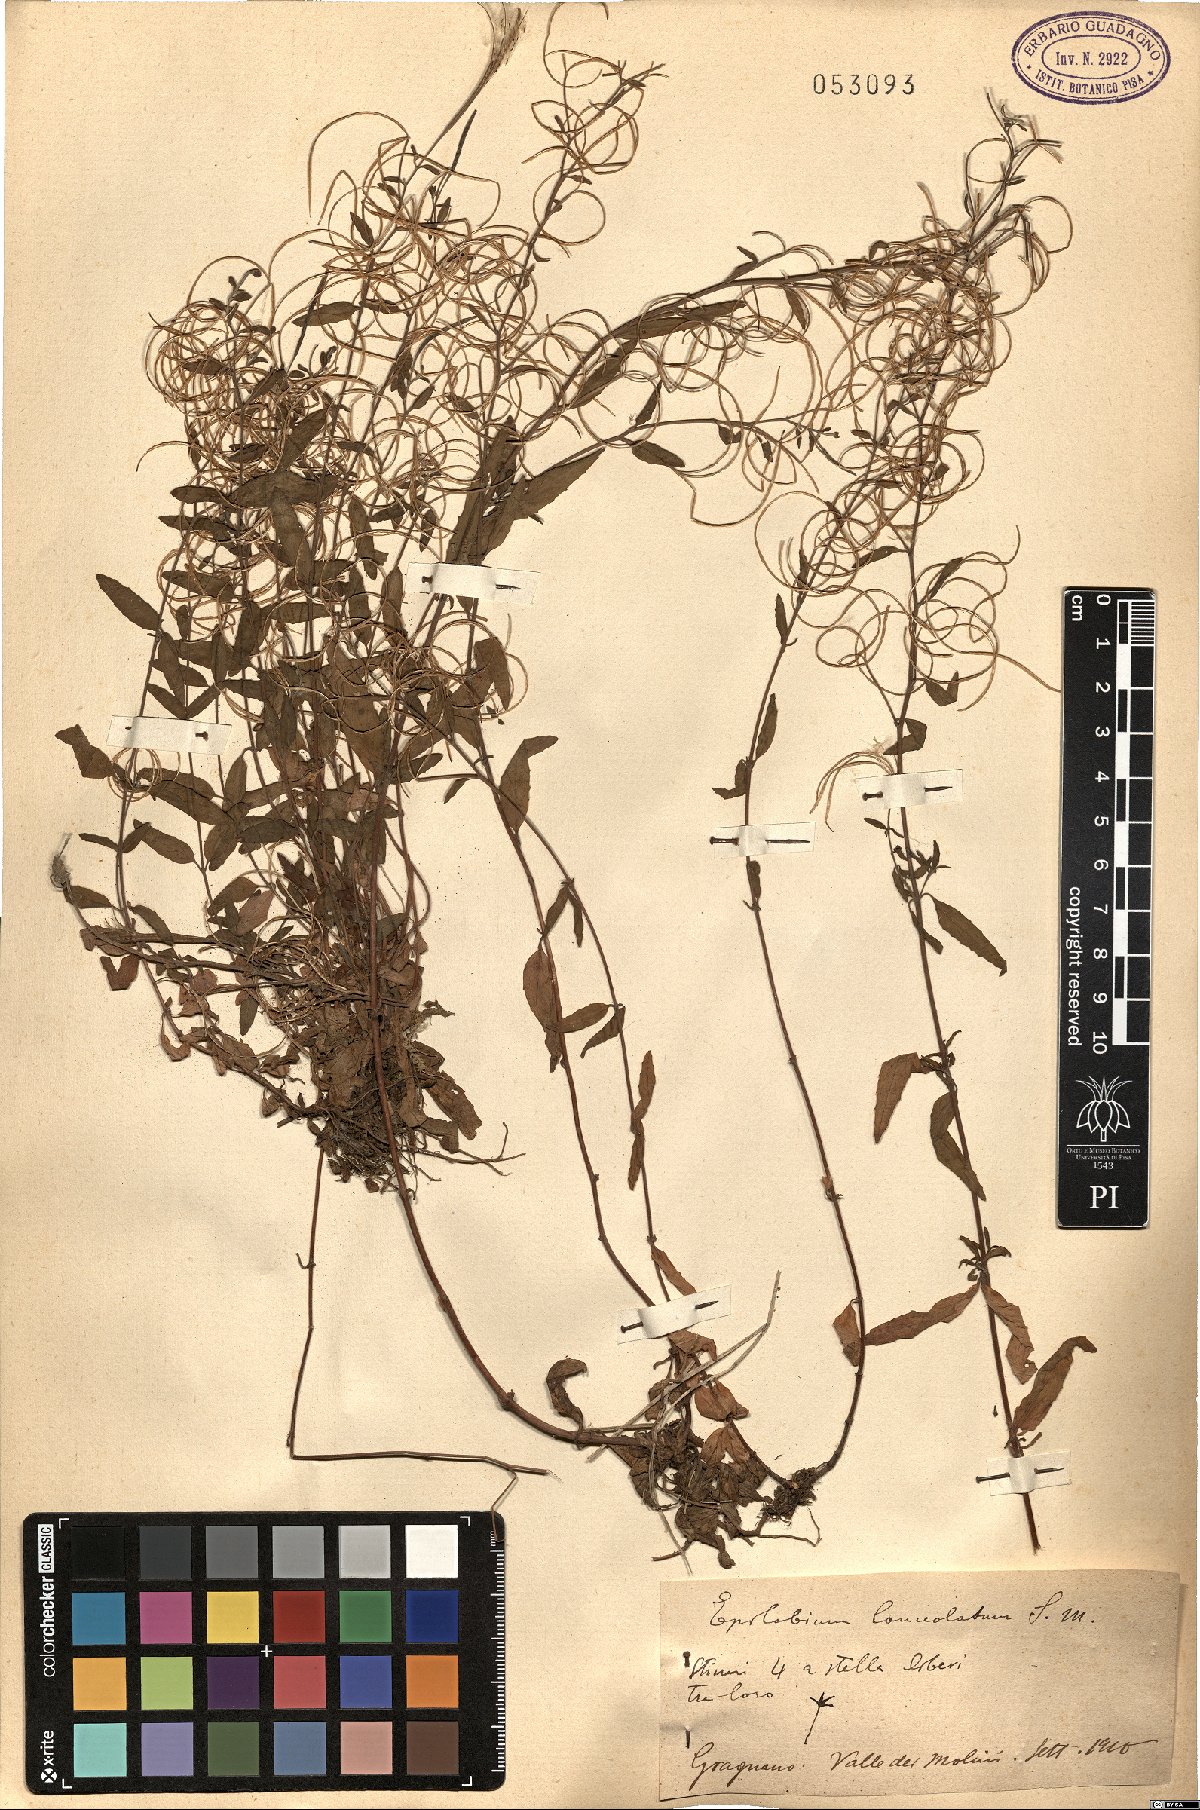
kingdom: Plantae
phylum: Tracheophyta
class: Magnoliopsida
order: Myrtales
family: Onagraceae
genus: Epilobium
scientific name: Epilobium lanceolatum
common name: Spear-leaved willowherb
